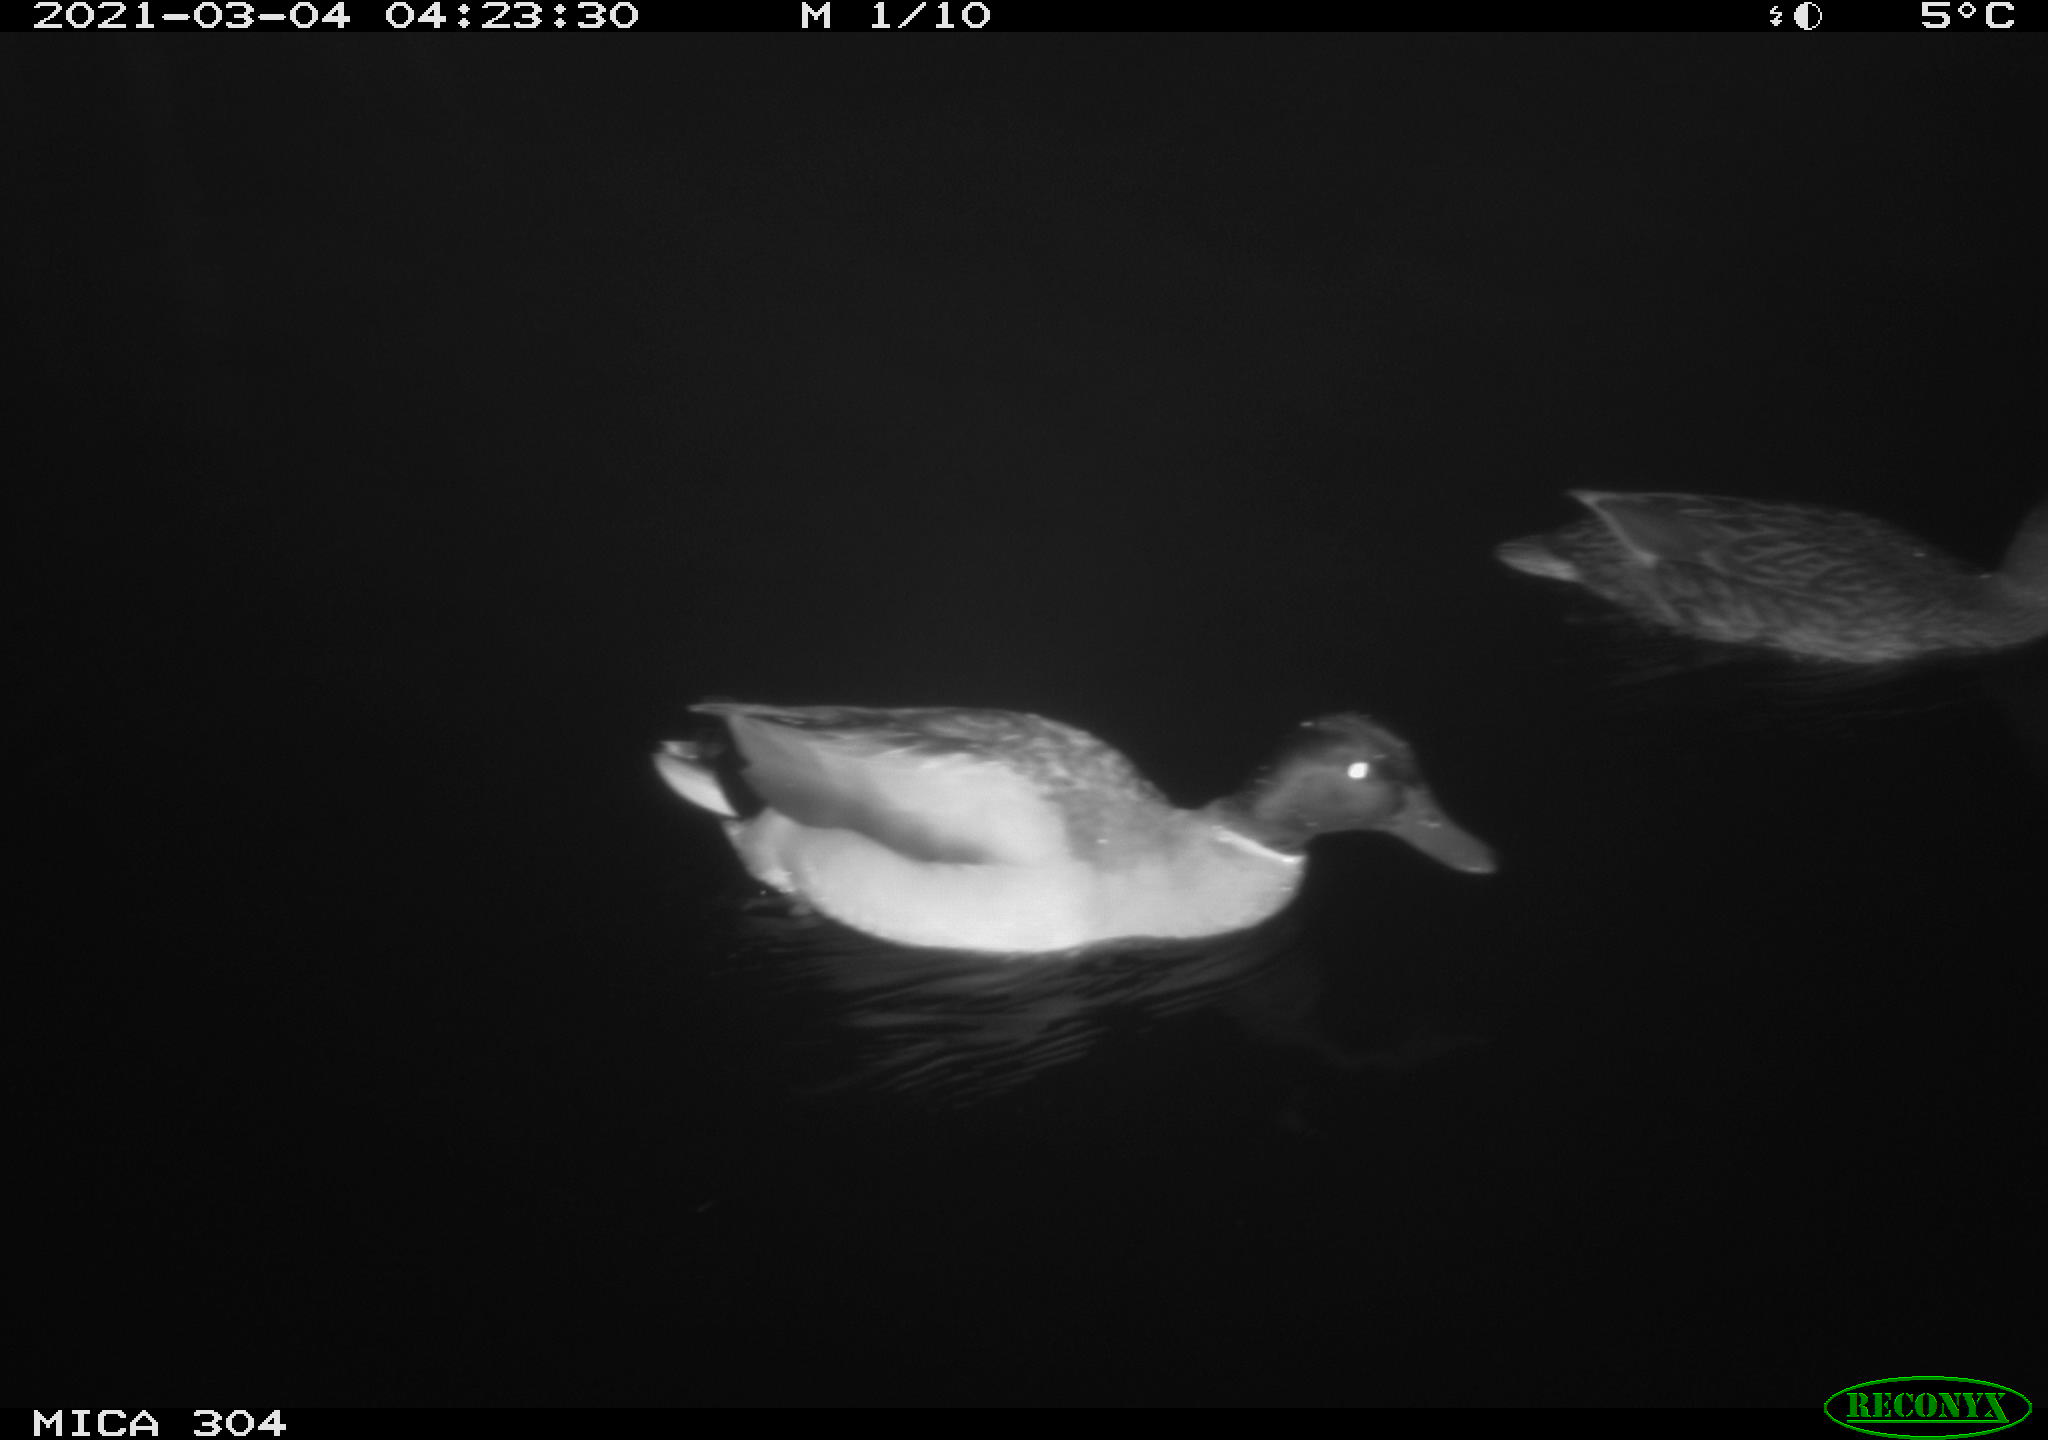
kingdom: Animalia
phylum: Chordata
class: Aves
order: Anseriformes
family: Anatidae
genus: Anas
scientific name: Anas platyrhynchos
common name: Mallard
